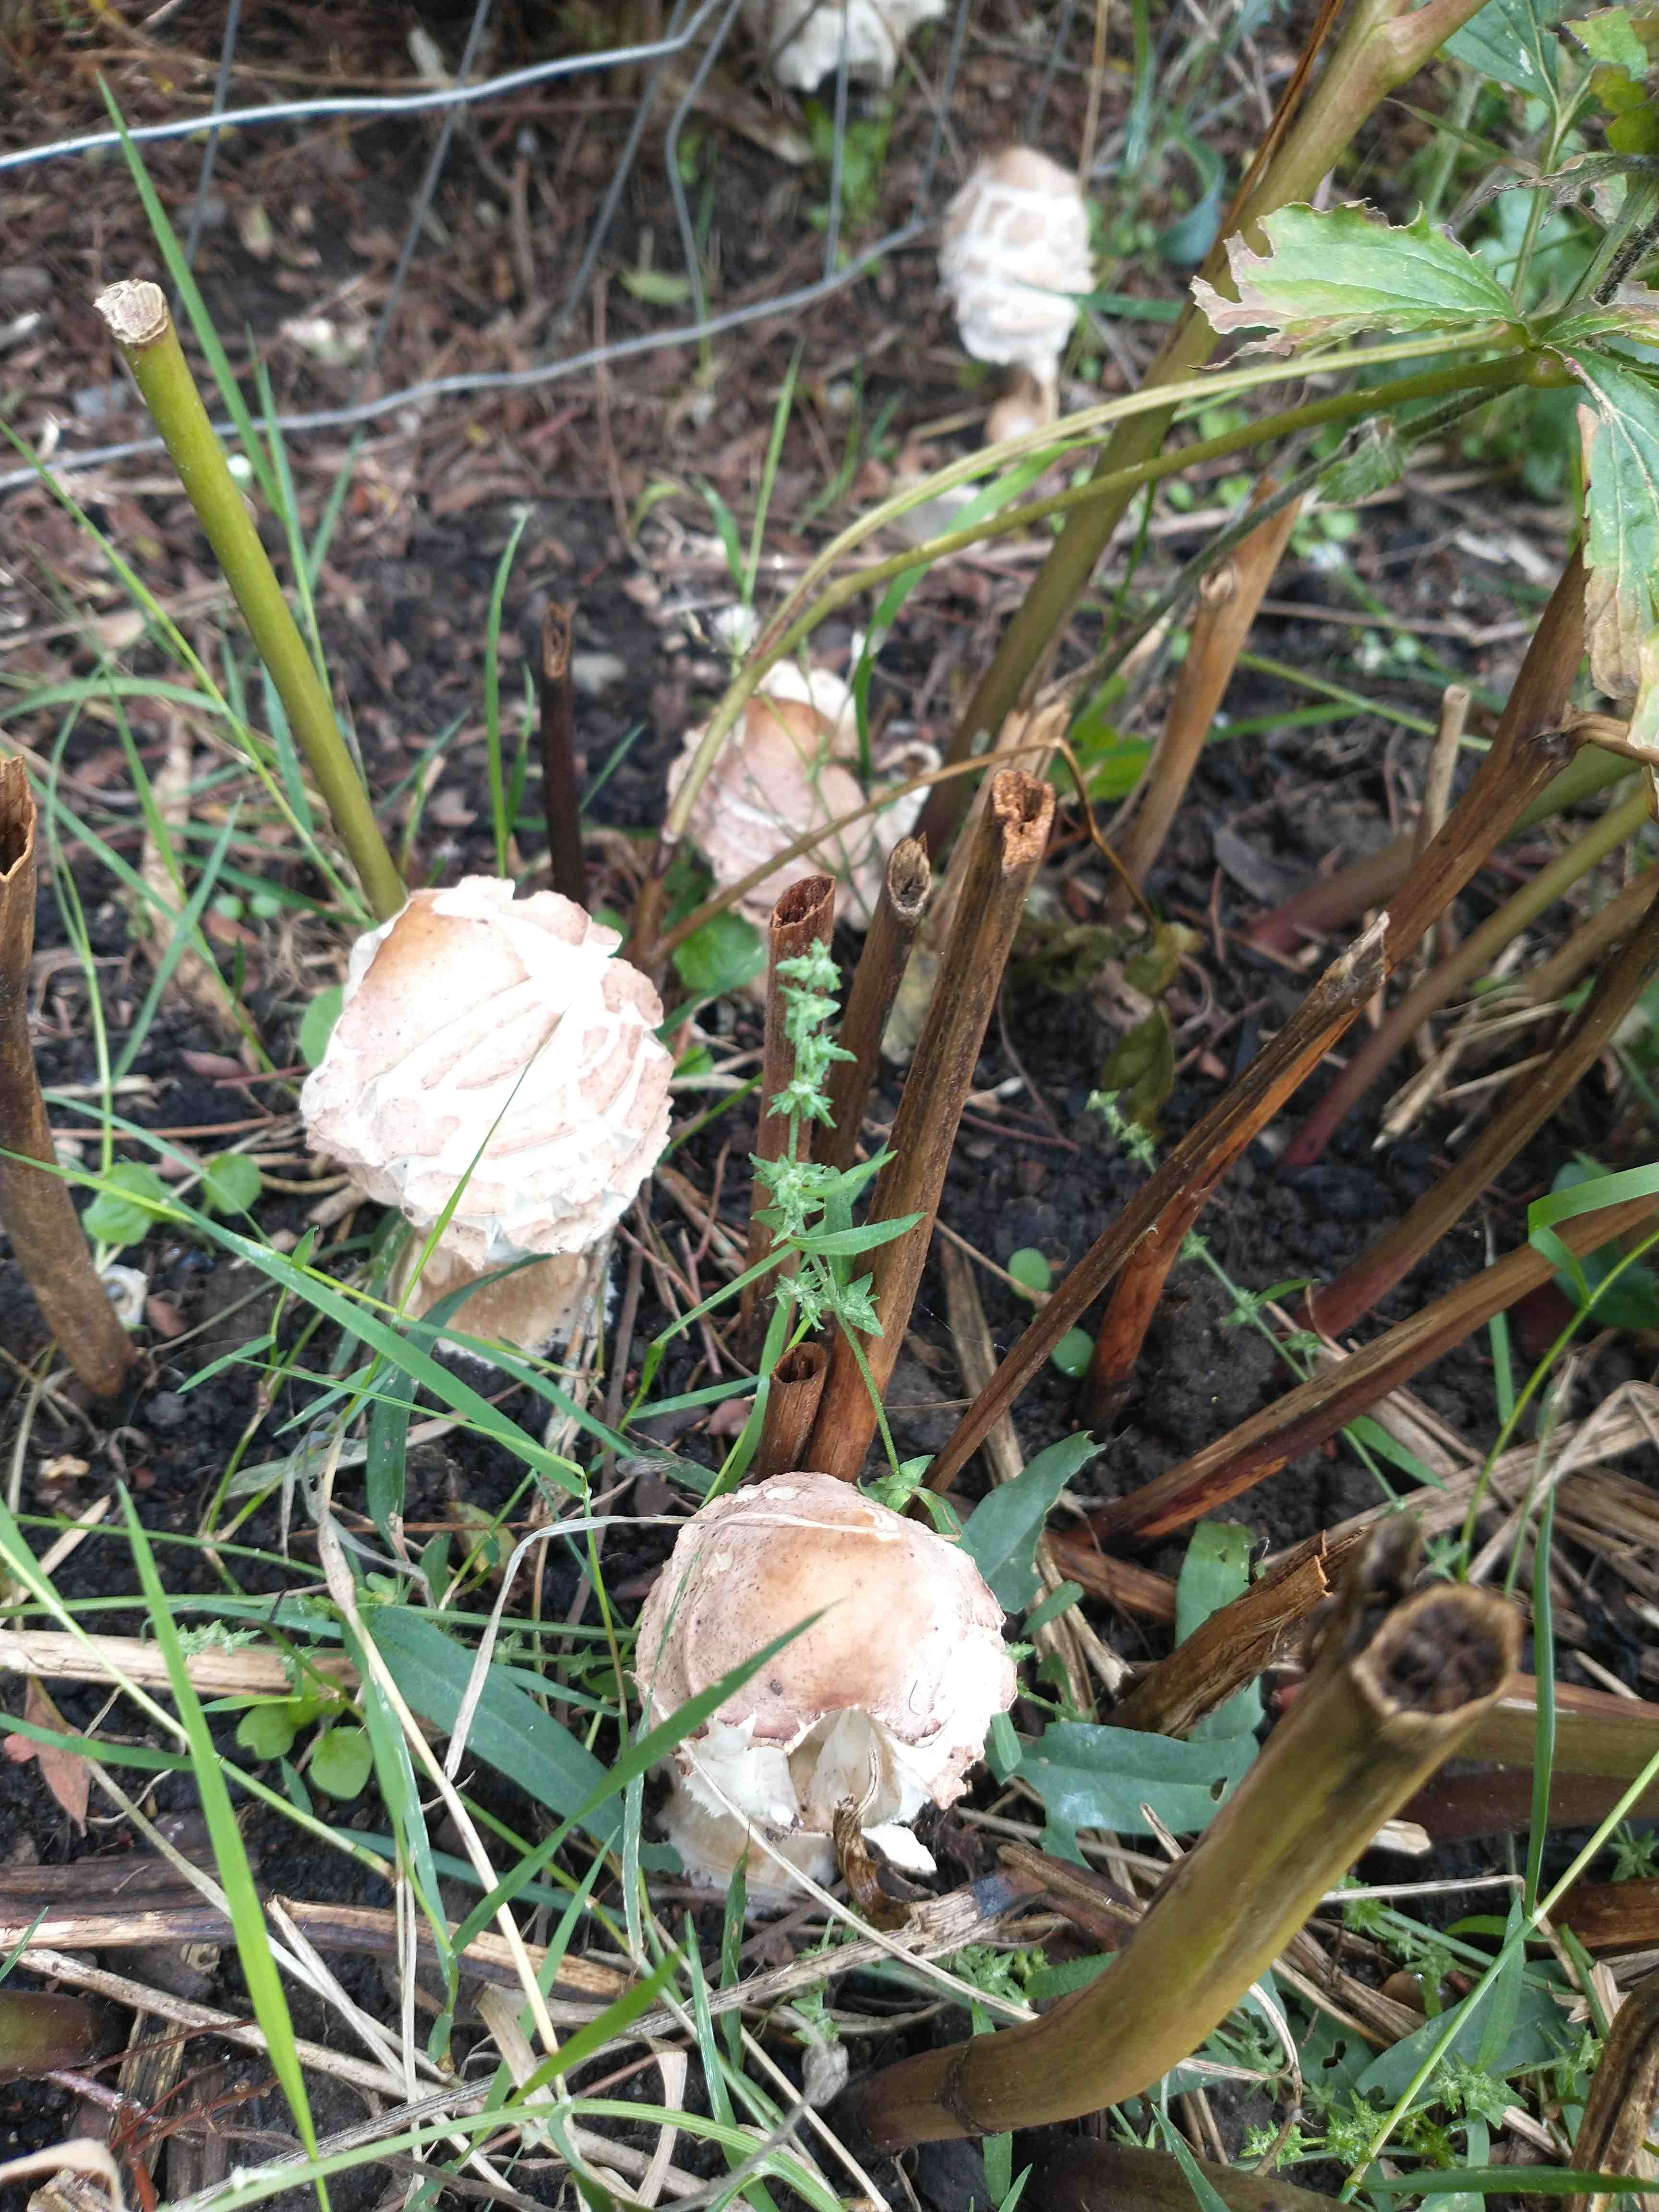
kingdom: Fungi
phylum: Basidiomycota
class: Agaricomycetes
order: Agaricales
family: Agaricaceae
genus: Chlorophyllum
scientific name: Chlorophyllum olivieri
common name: almindelig rabarberhat
